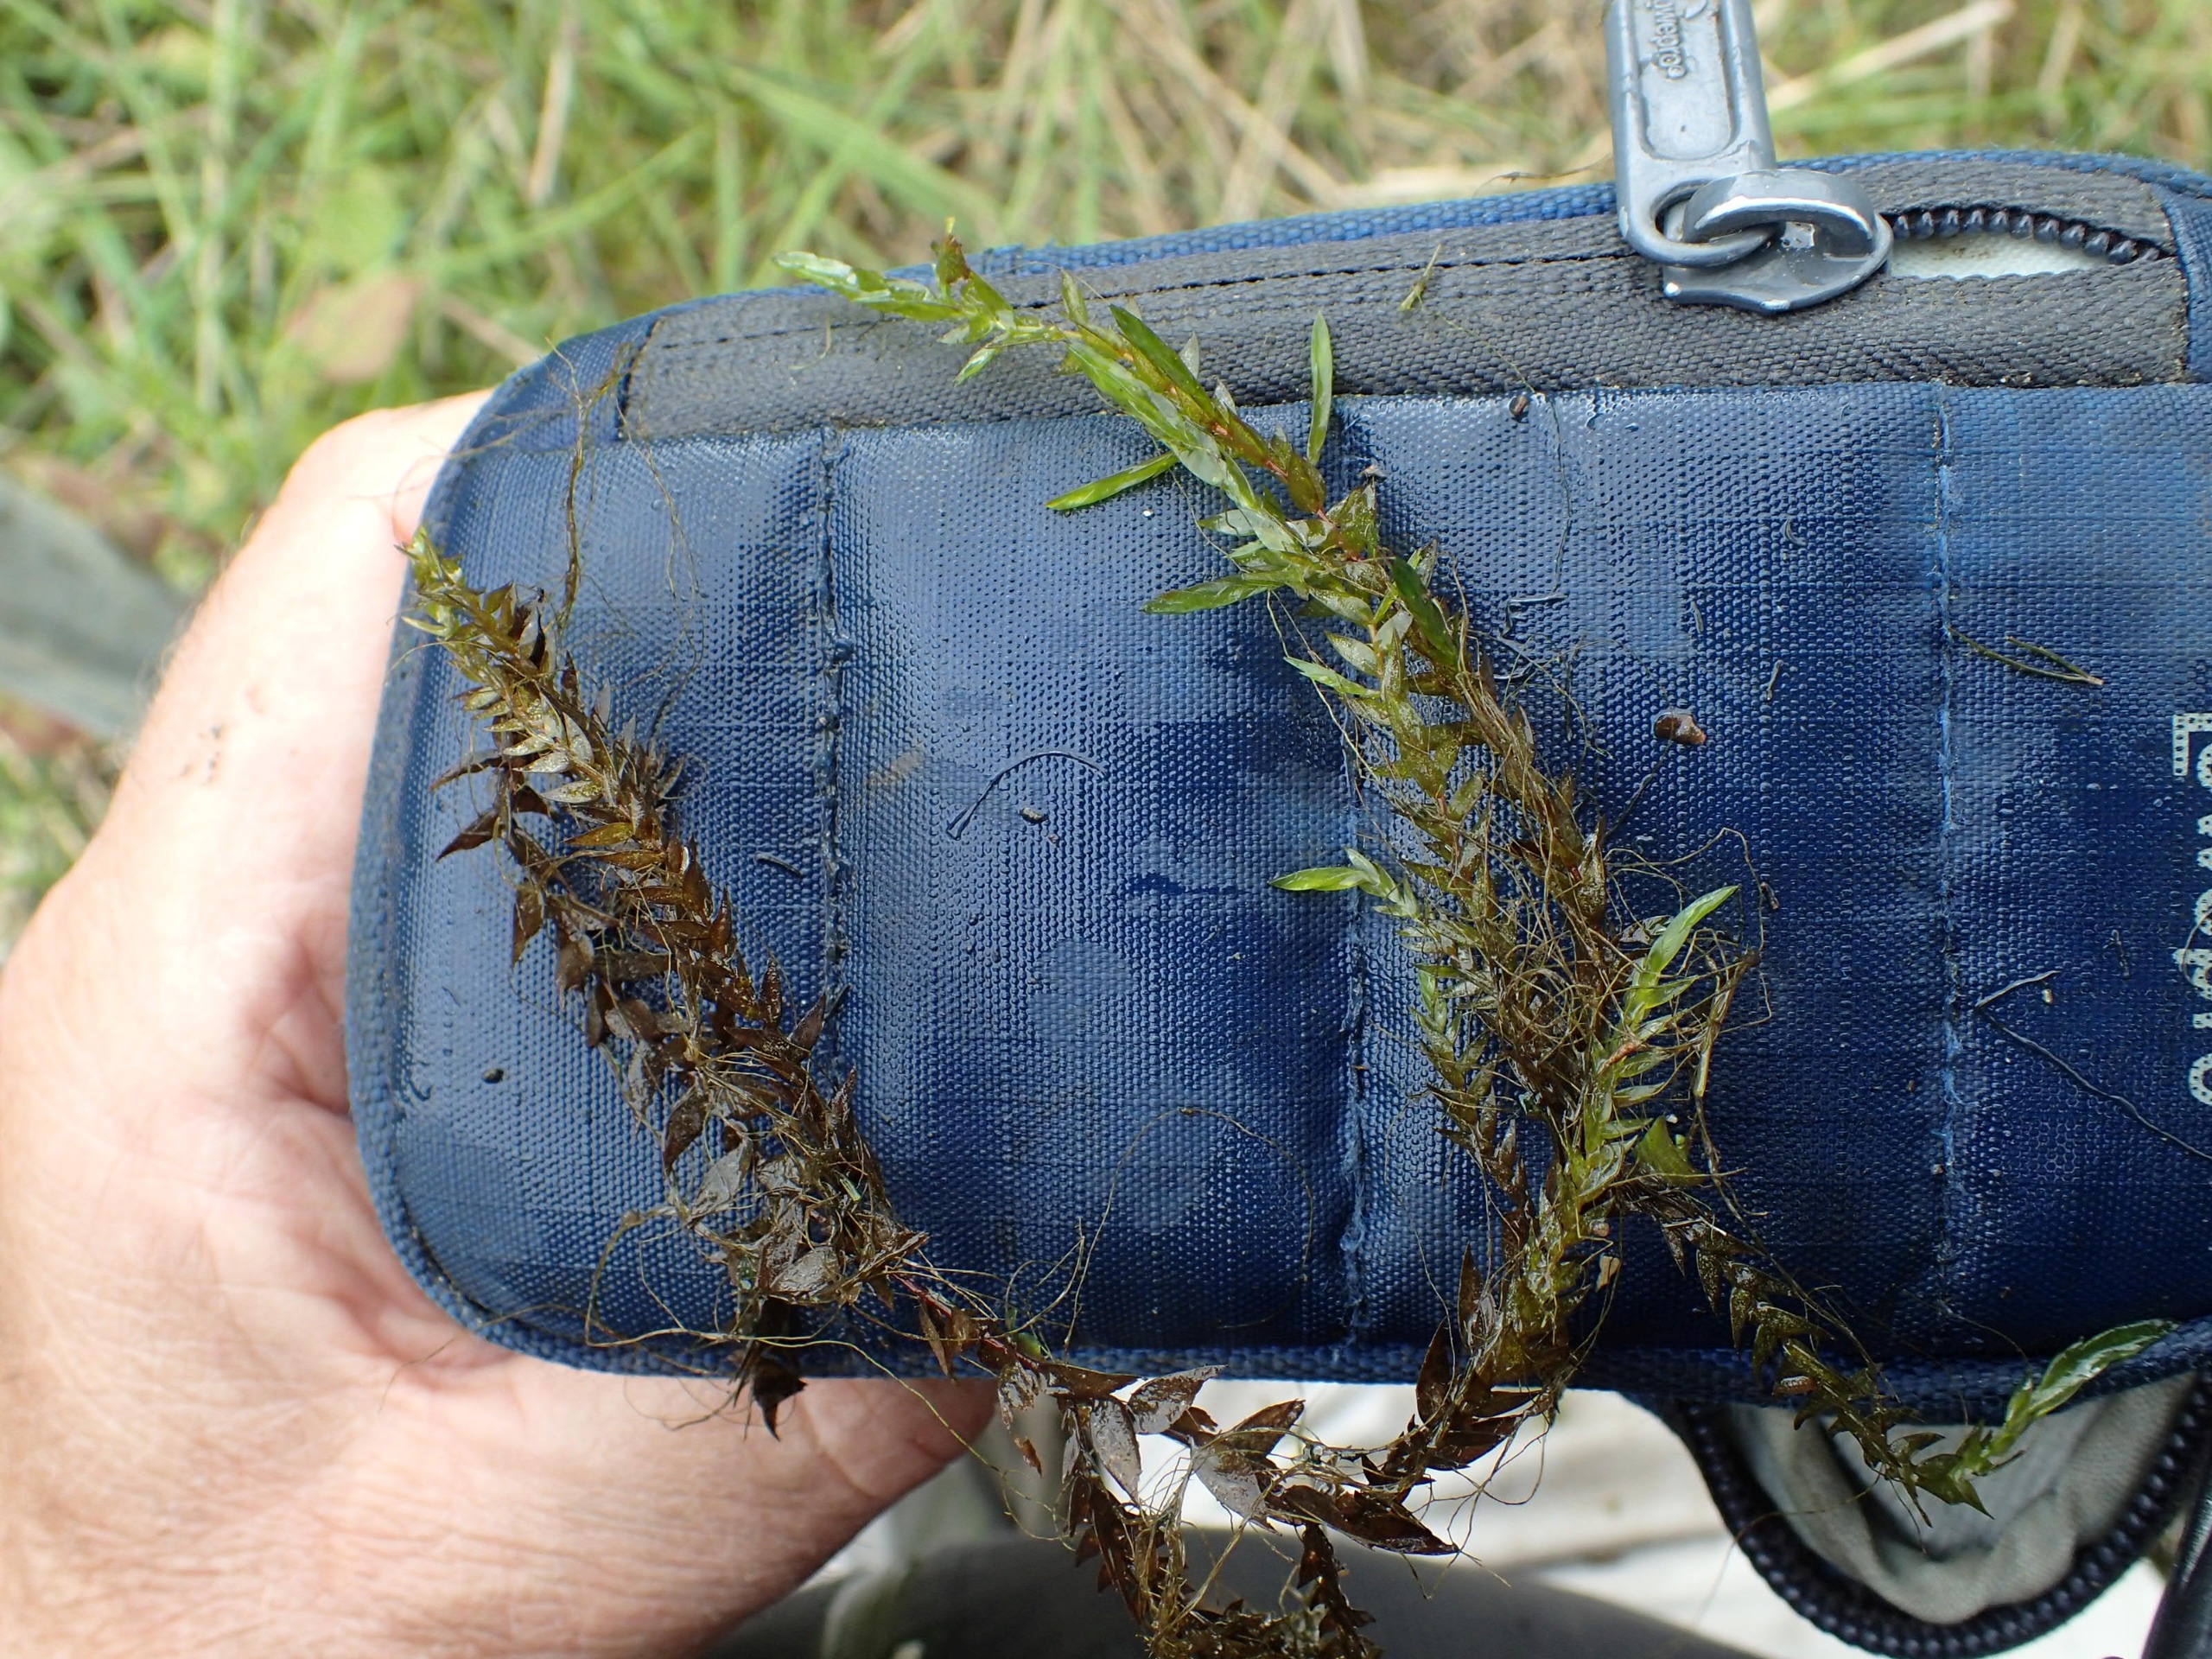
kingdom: Plantae
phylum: Bryophyta
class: Bryopsida
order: Hypnales
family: Fontinalaceae
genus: Fontinalis
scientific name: Fontinalis antipyretica
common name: Stor kildemos
